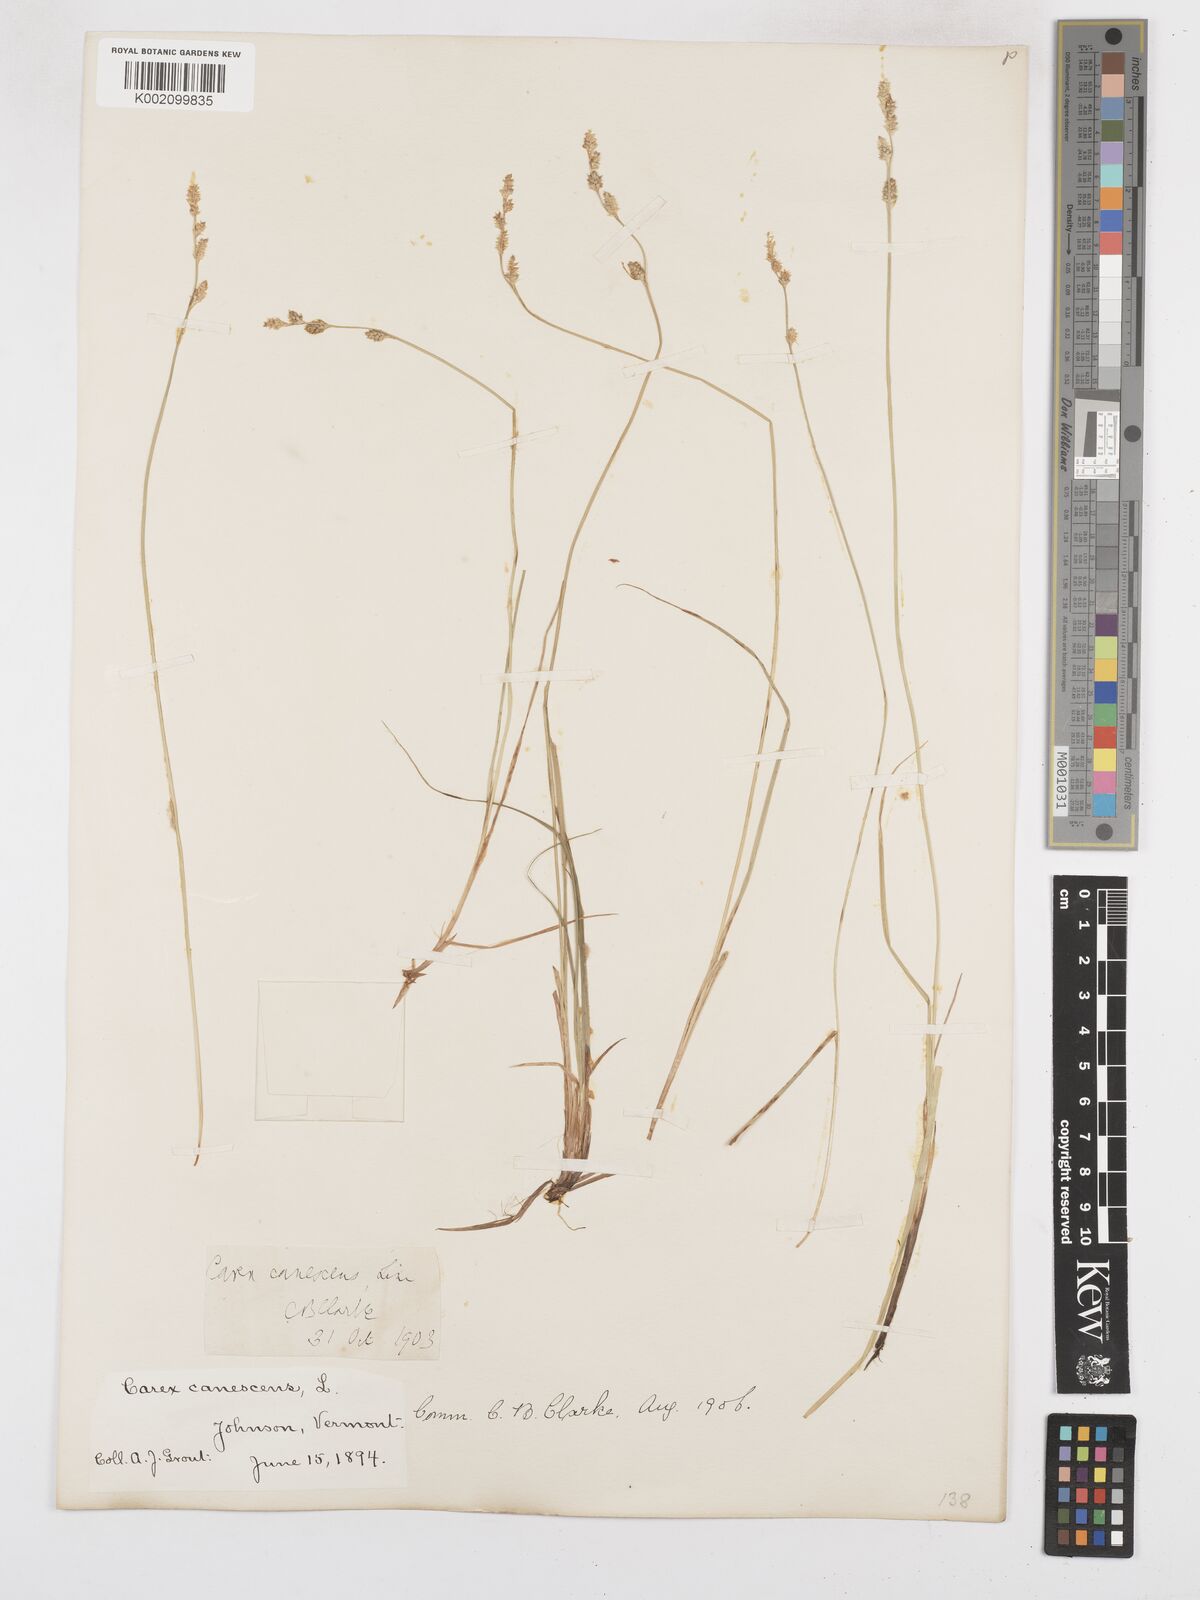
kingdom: Plantae
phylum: Tracheophyta
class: Liliopsida
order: Poales
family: Cyperaceae
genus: Carex
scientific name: Carex curta
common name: White sedge
